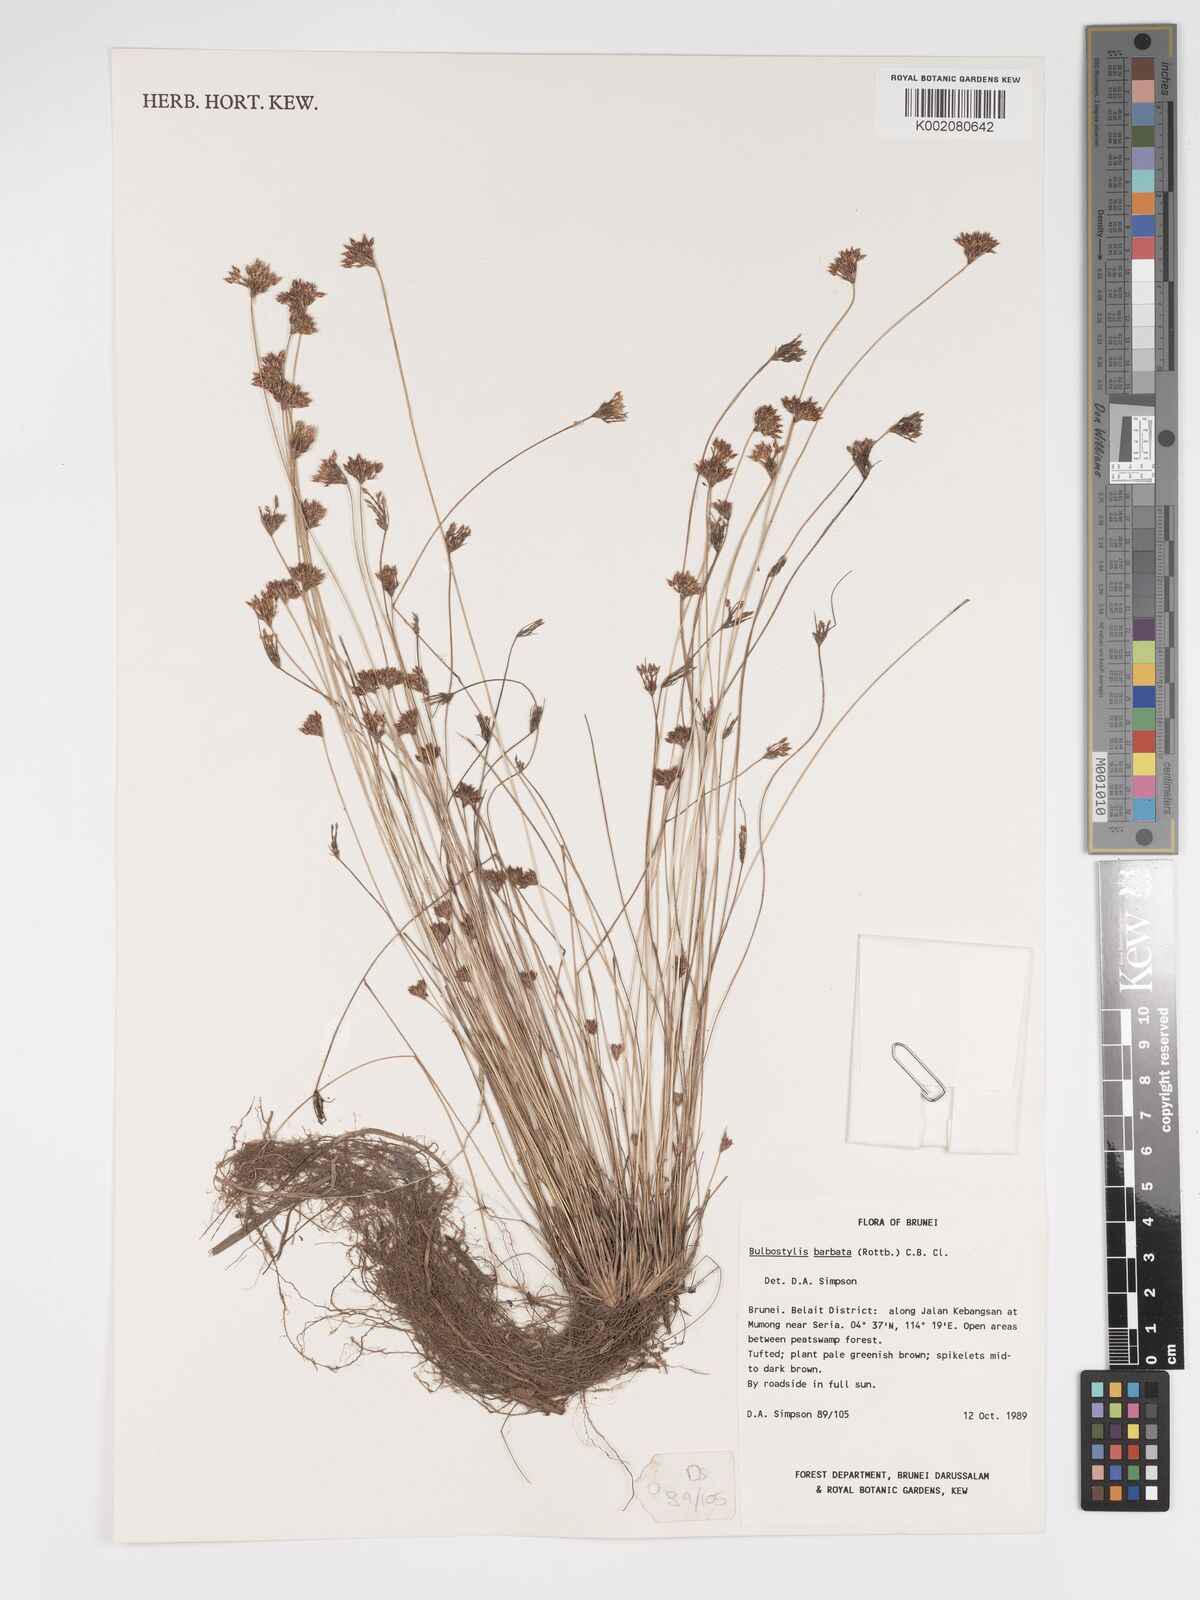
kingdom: Plantae
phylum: Tracheophyta
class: Liliopsida
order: Poales
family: Cyperaceae
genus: Bulbostylis
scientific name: Bulbostylis barbata
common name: Watergrass
